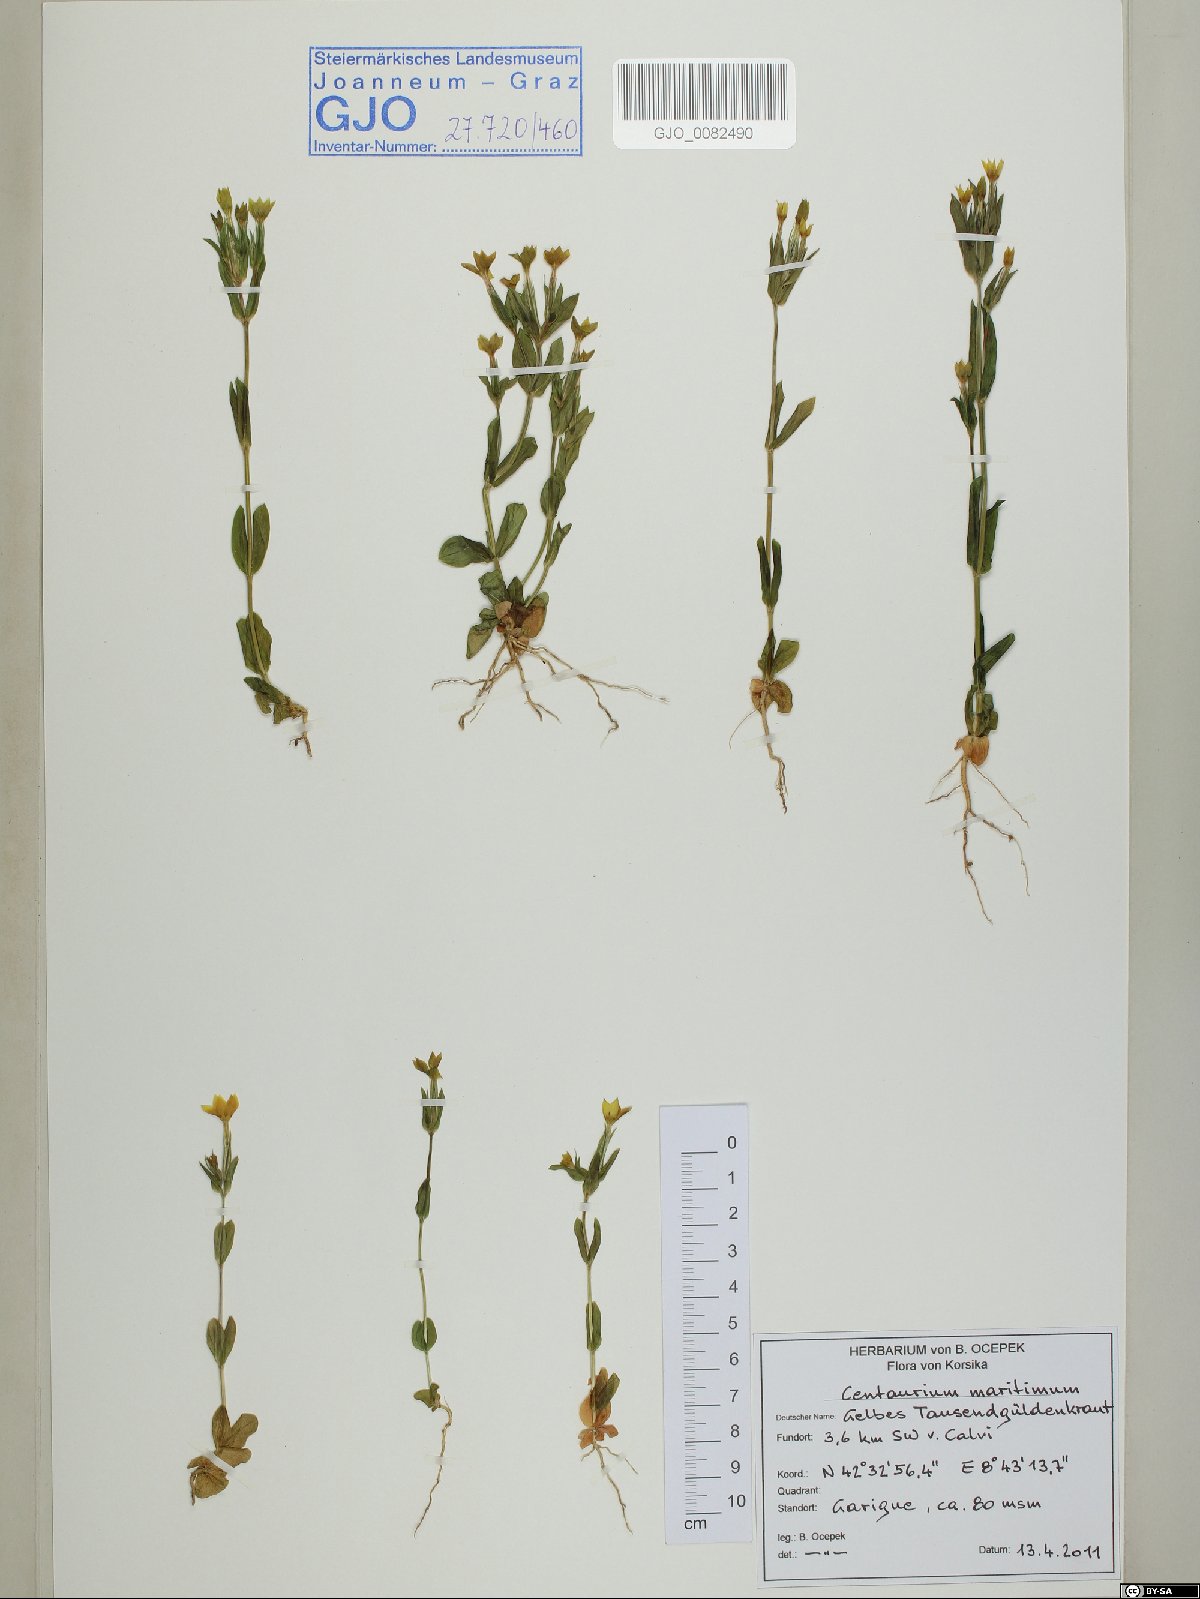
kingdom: Plantae
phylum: Tracheophyta
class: Magnoliopsida
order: Gentianales
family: Gentianaceae
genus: Centaurium
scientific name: Centaurium maritimum
